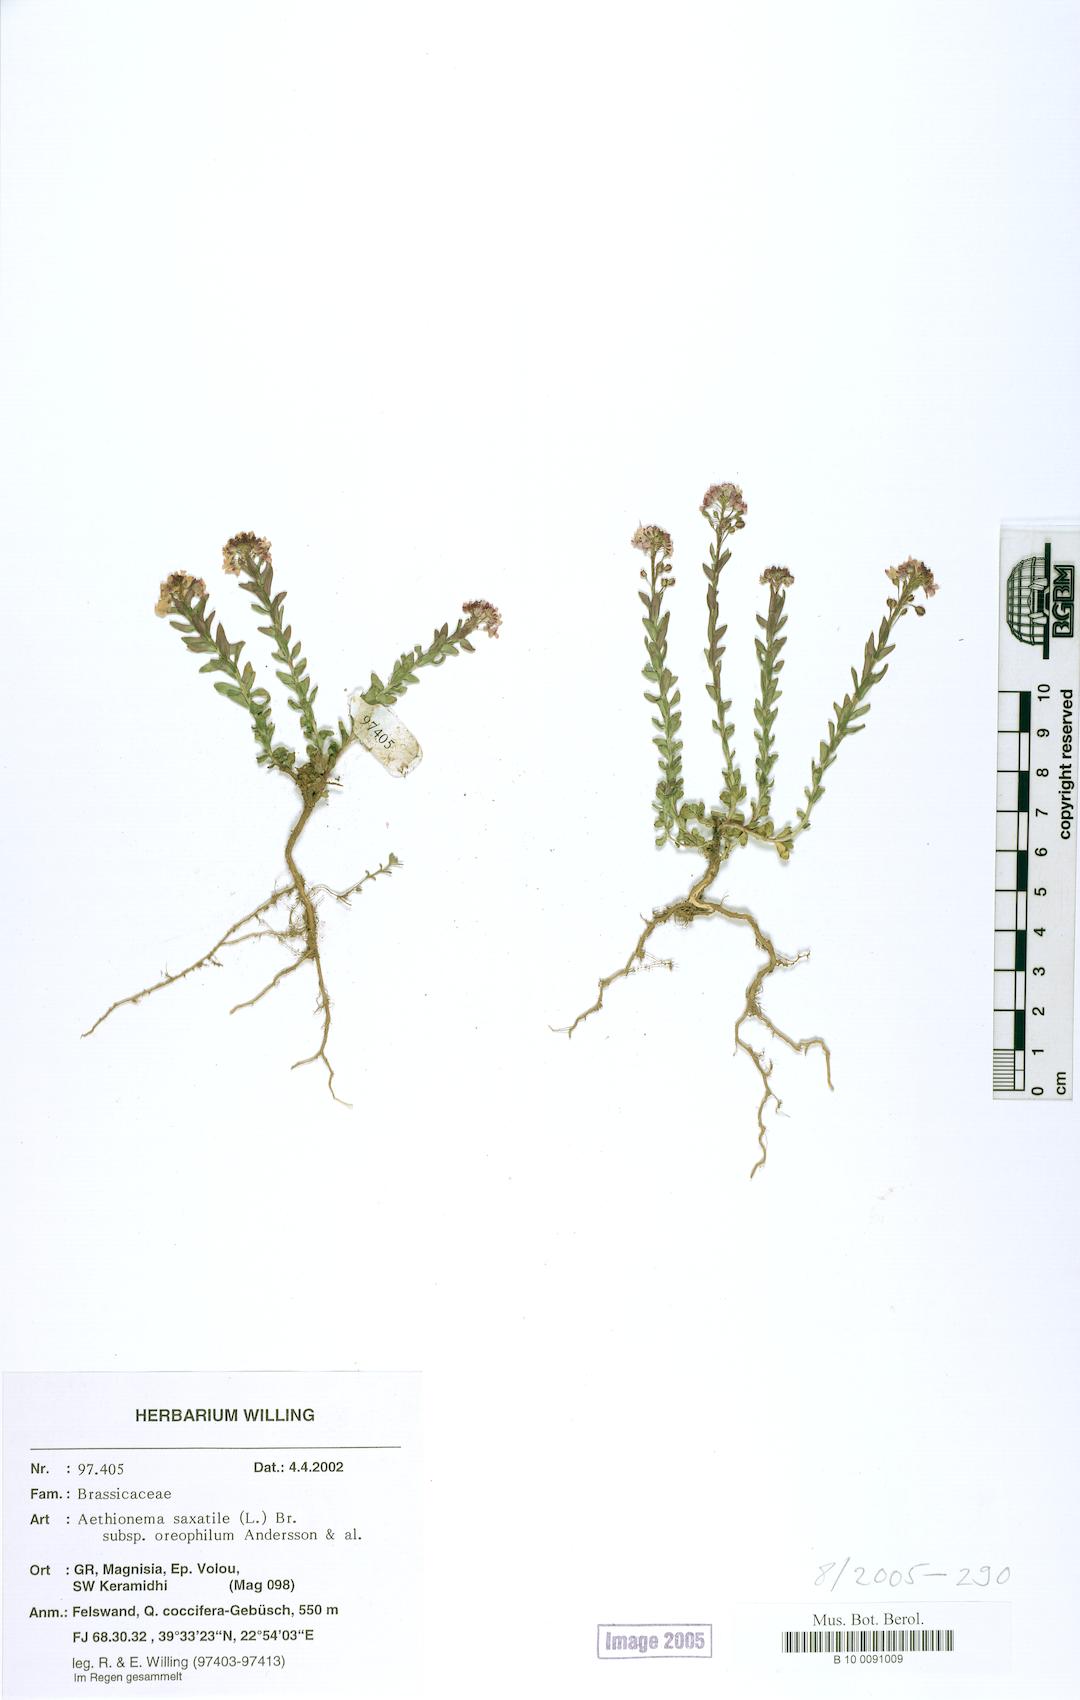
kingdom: Plantae
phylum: Tracheophyta
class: Magnoliopsida
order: Brassicales
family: Brassicaceae
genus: Aethionema
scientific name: Aethionema saxatile
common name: Burnt candytuft
